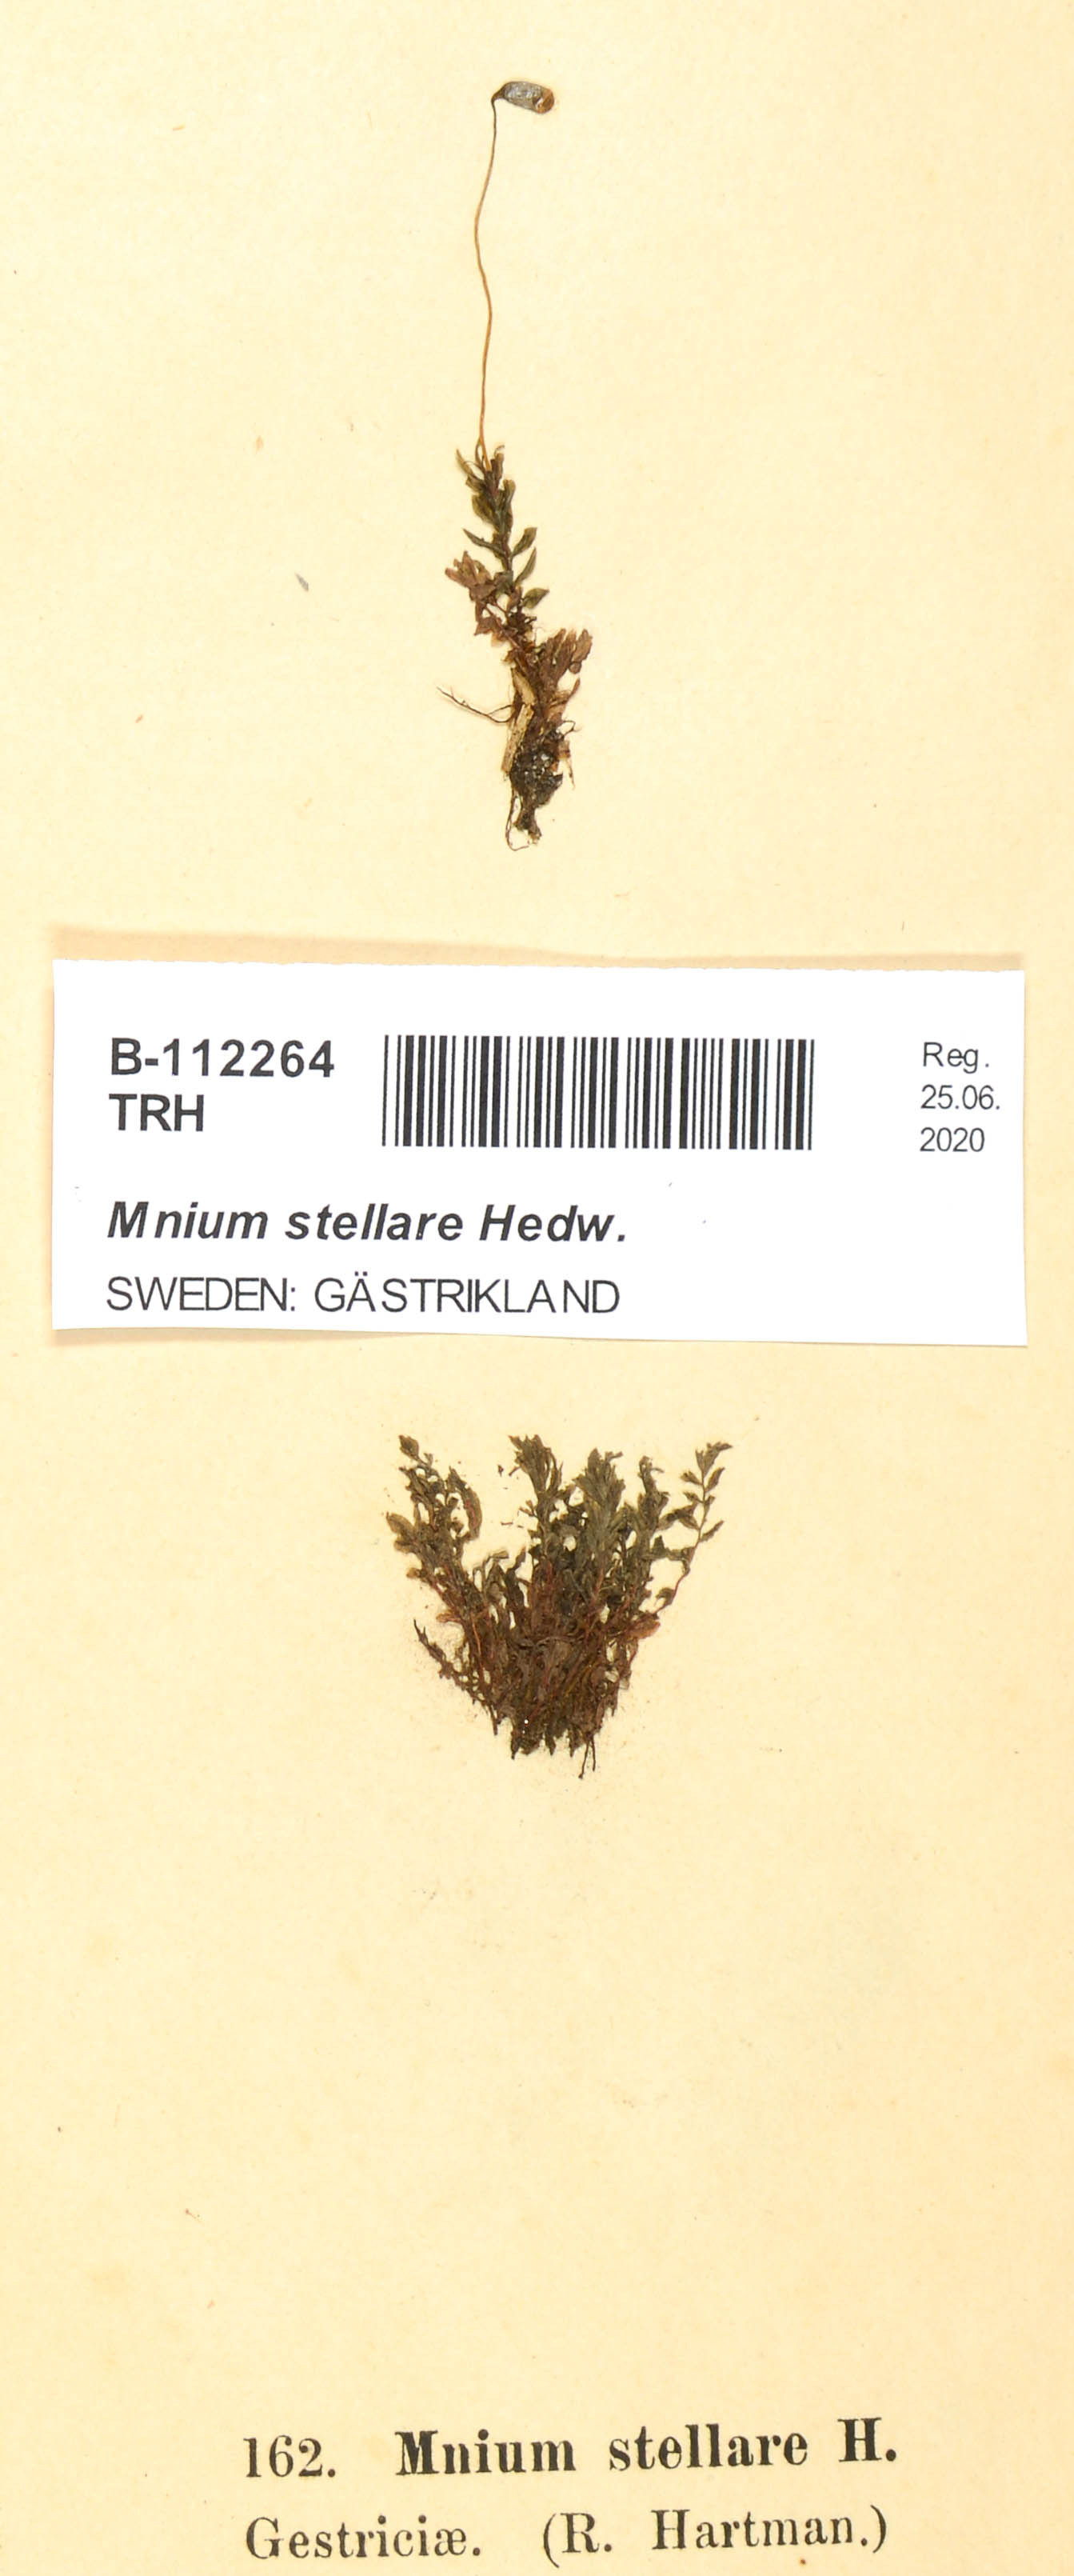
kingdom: Plantae
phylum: Bryophyta
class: Bryopsida
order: Bryales
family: Mniaceae
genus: Mnium
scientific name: Mnium stellare
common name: Star leafy moss
